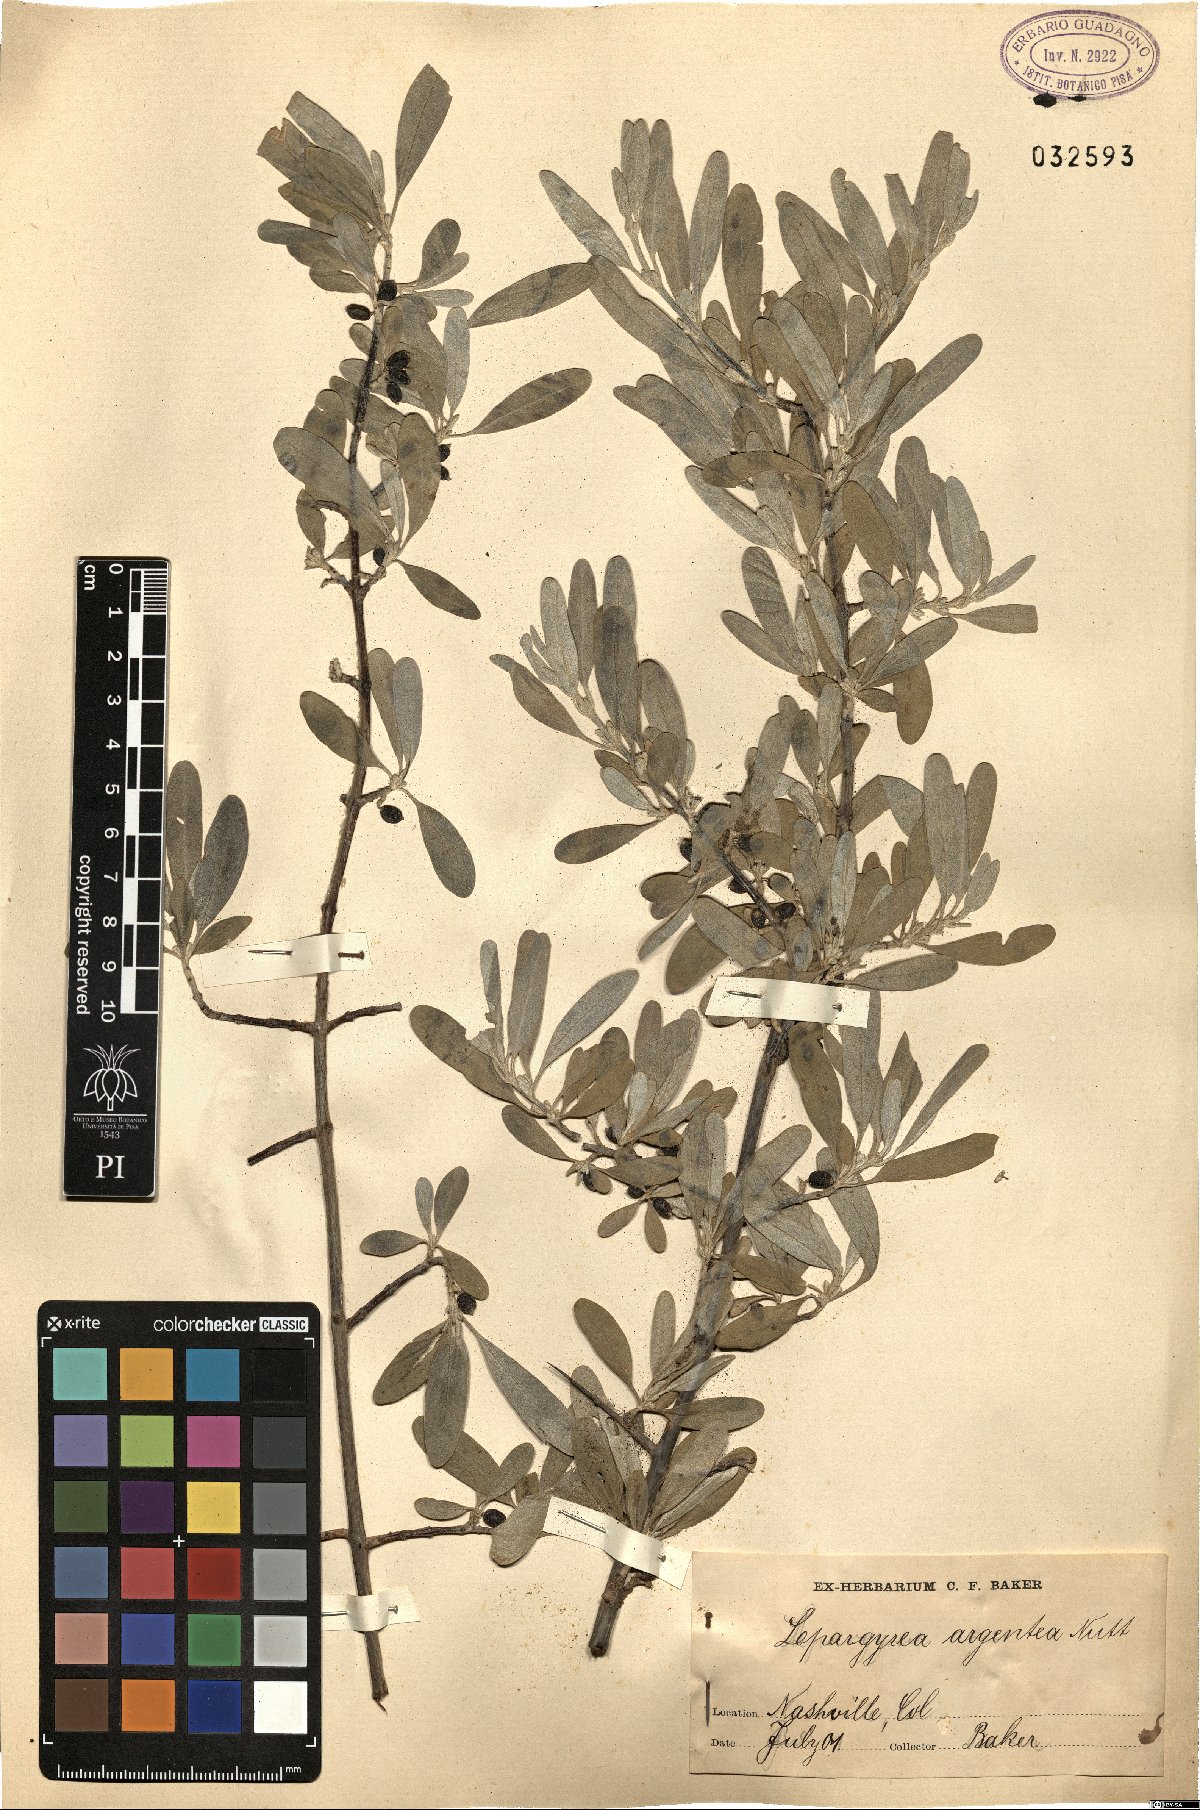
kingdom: Plantae
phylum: Tracheophyta
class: Magnoliopsida
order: Rosales
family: Elaeagnaceae
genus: Shepherdia
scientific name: Shepherdia argentea
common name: Silver buffaloberry
